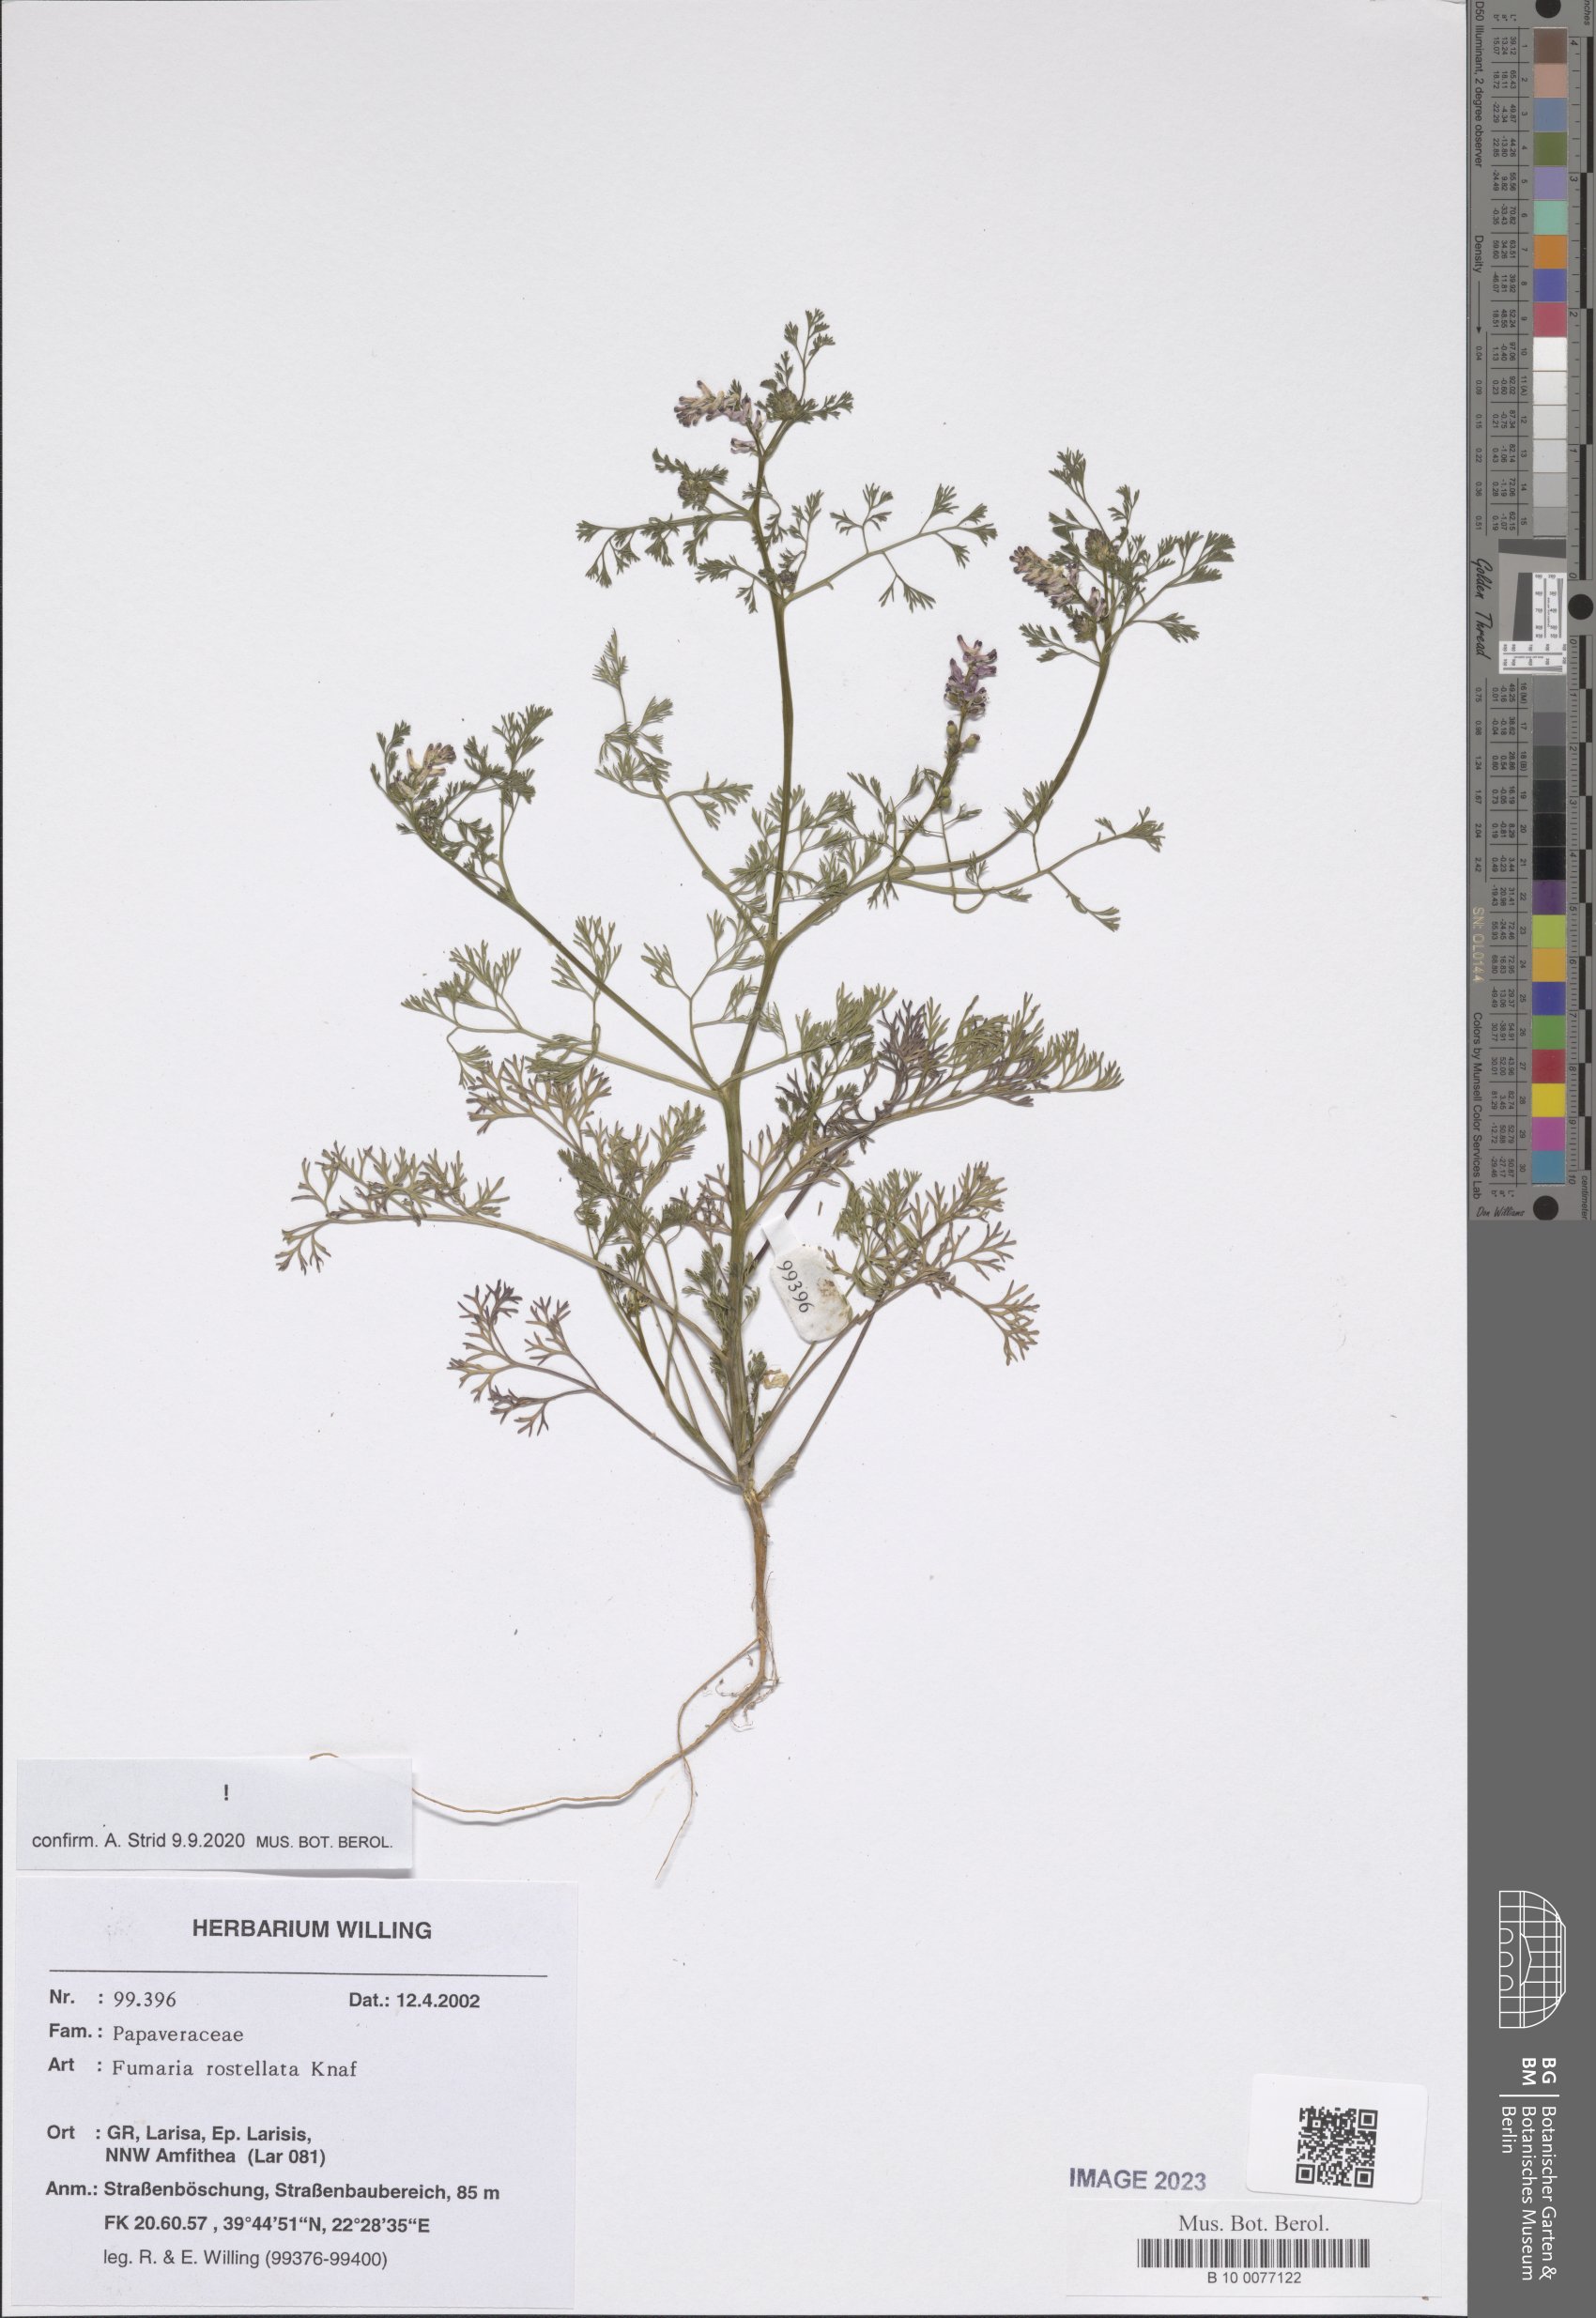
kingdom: Plantae
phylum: Tracheophyta
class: Magnoliopsida
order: Ranunculales
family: Papaveraceae
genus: Fumaria
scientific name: Fumaria rostellata
